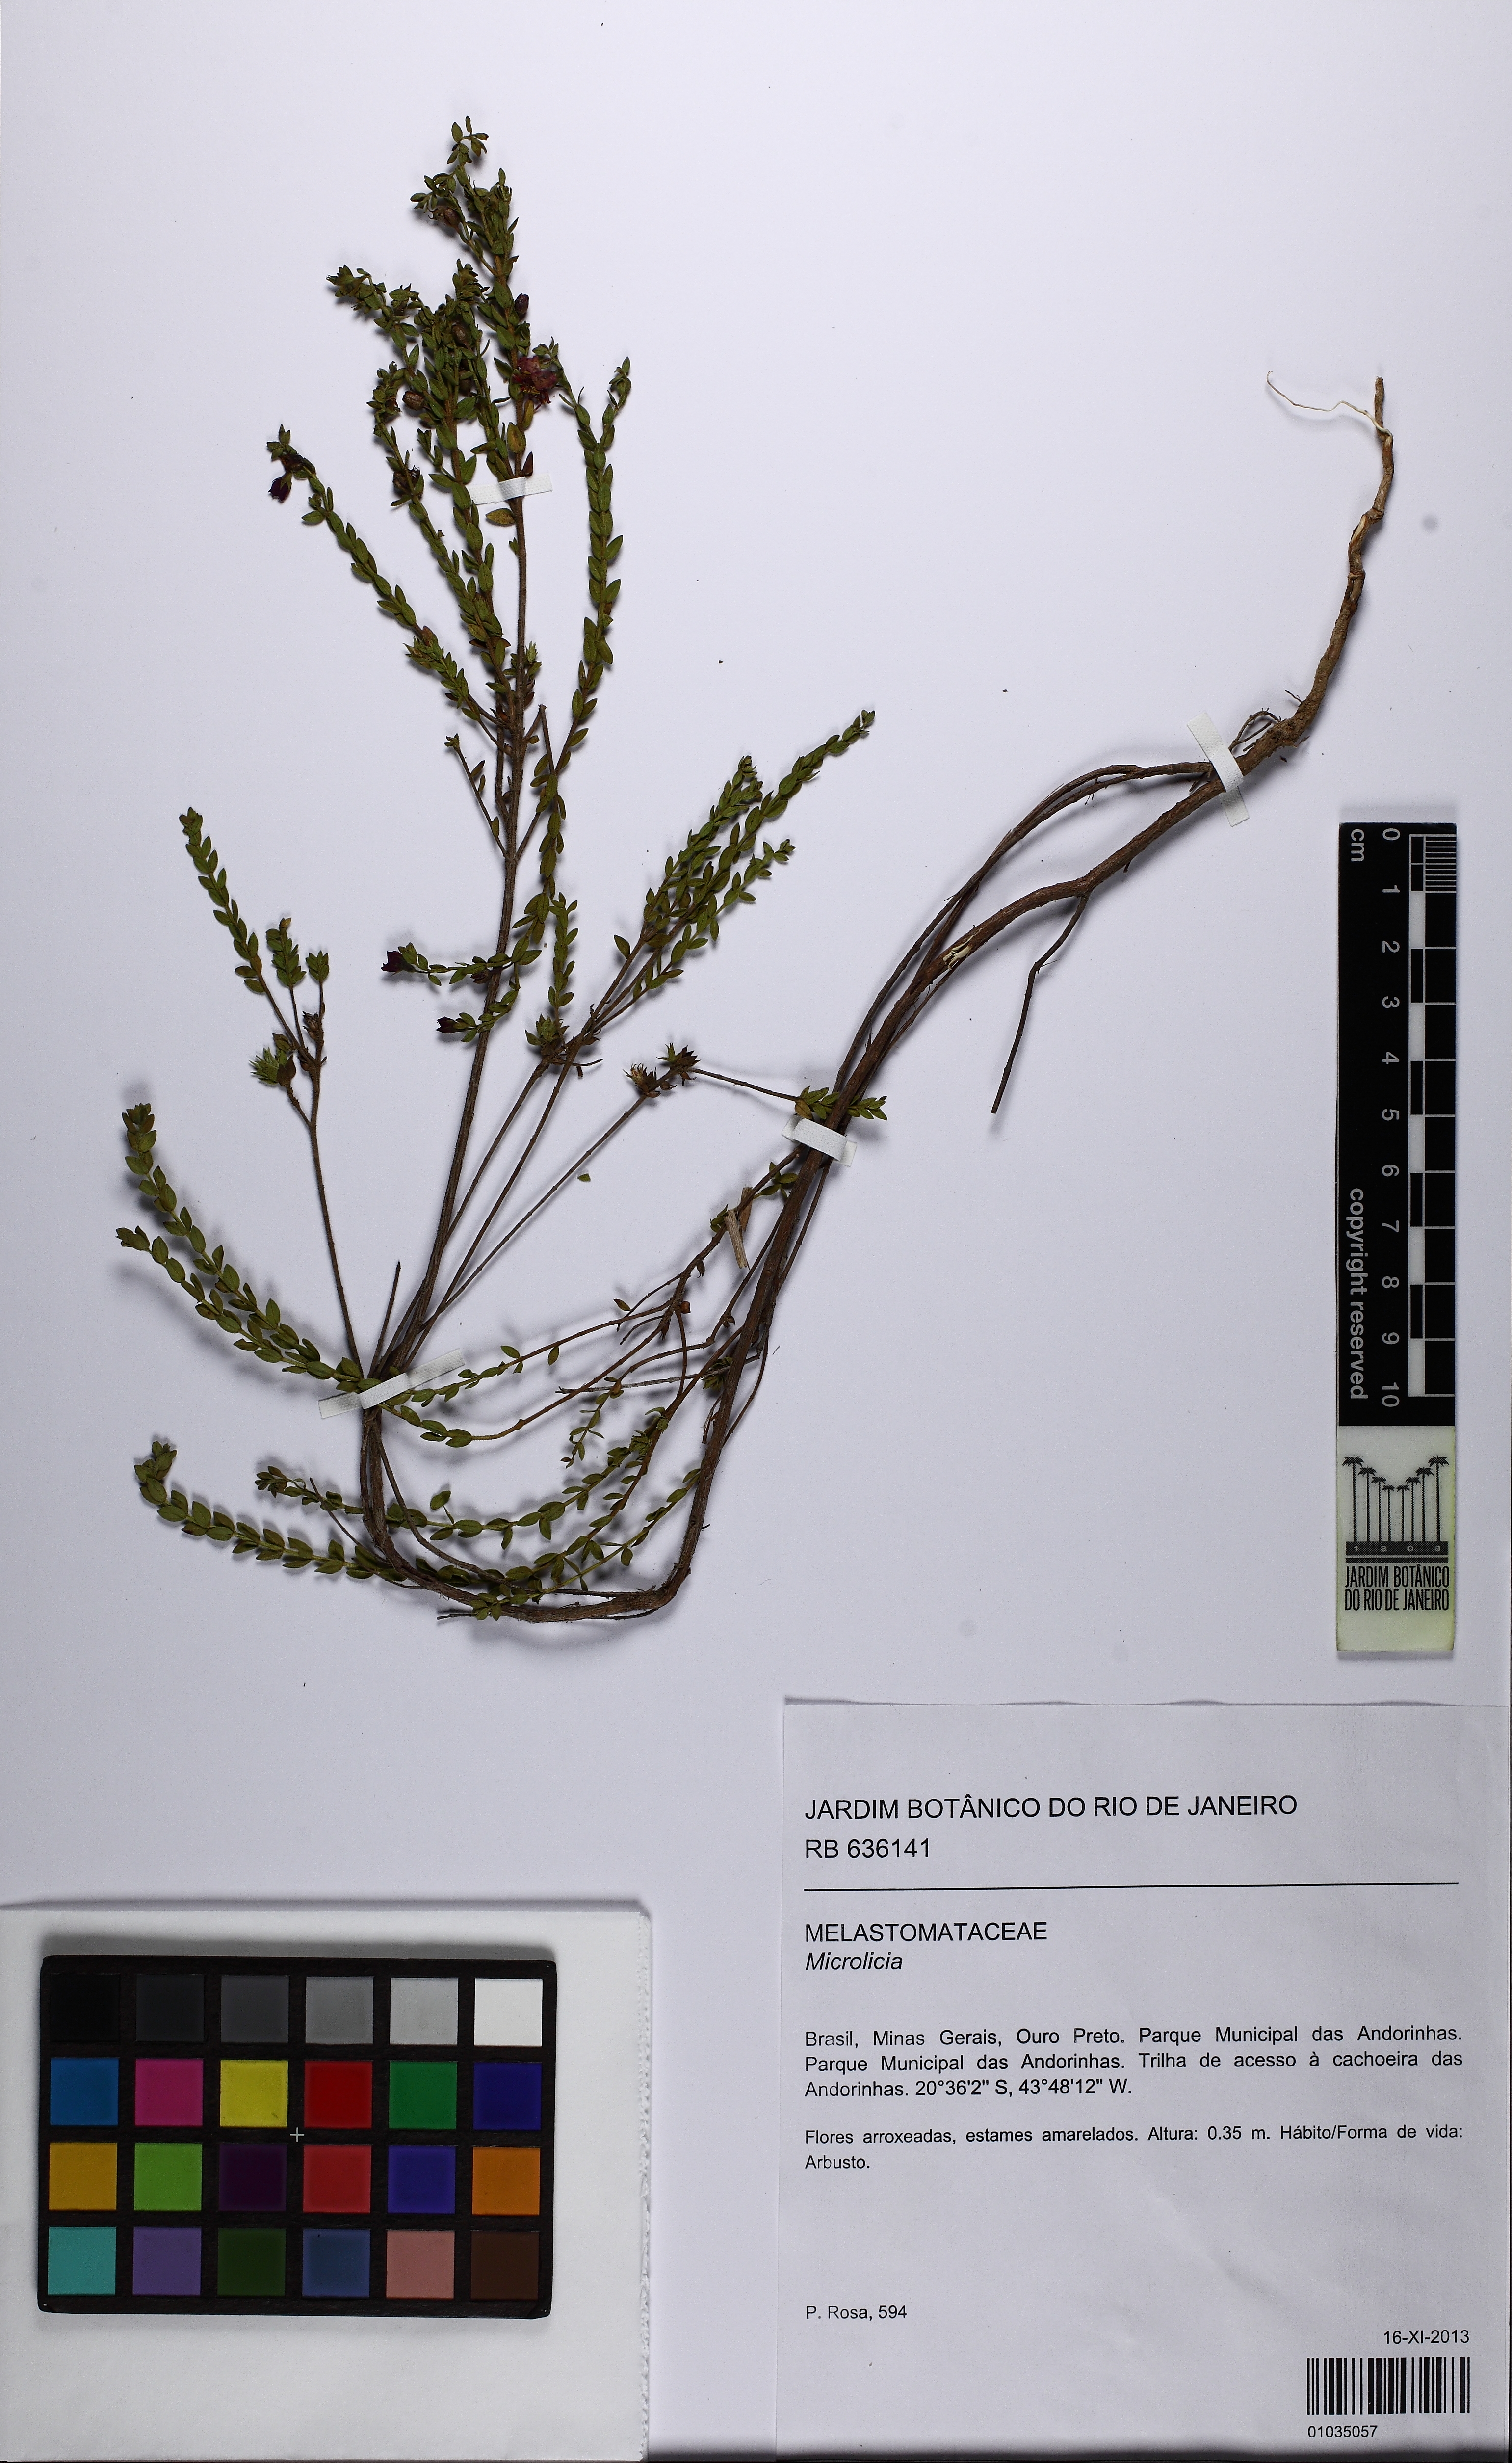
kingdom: Plantae
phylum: Tracheophyta
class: Magnoliopsida
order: Myrtales
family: Melastomataceae
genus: Microlicia
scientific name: Microlicia fulva
